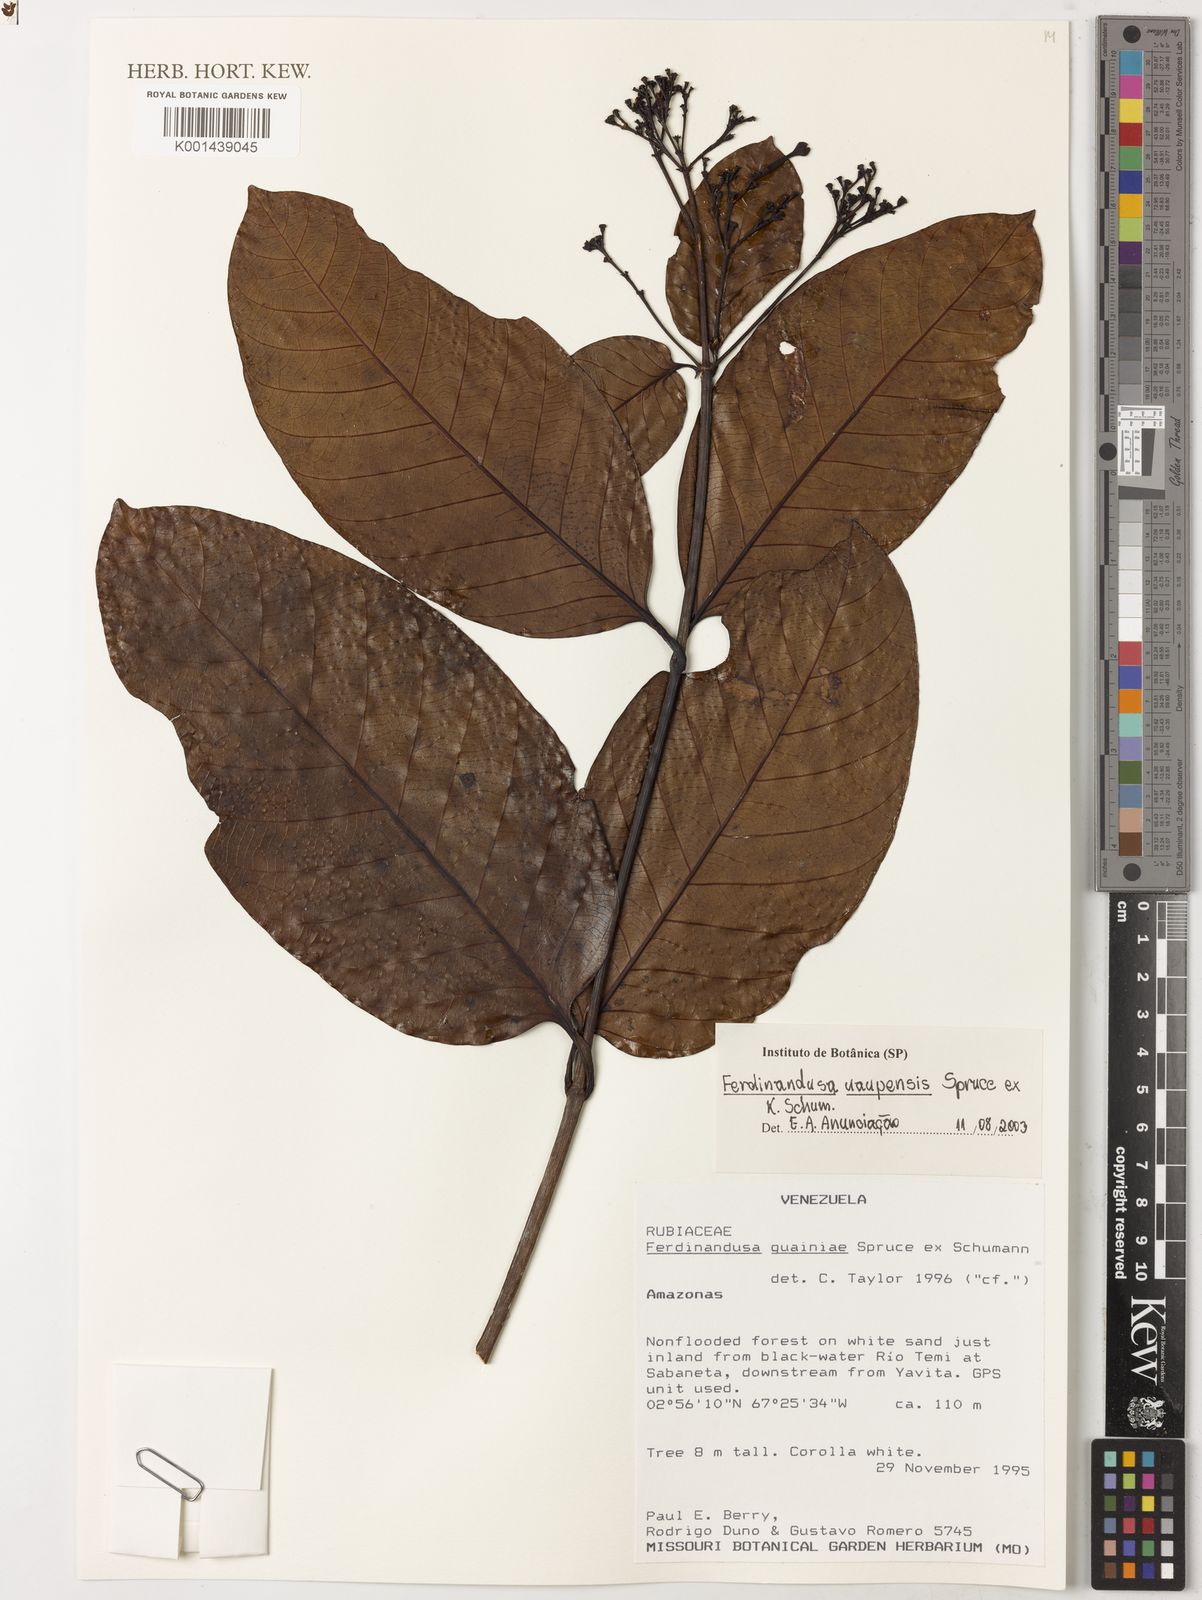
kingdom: Plantae
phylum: Tracheophyta
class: Magnoliopsida
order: Gentianales
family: Rubiaceae
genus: Ferdinandusa
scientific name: Ferdinandusa uaupensis
